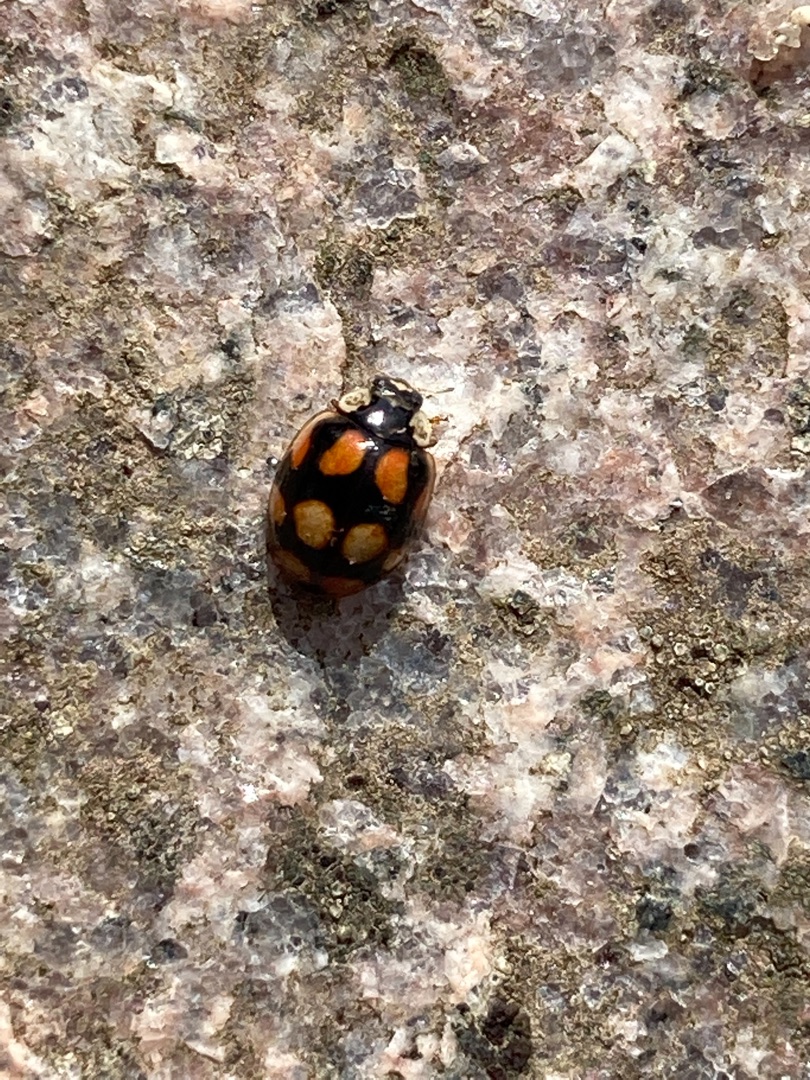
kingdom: Animalia
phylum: Arthropoda
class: Insecta
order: Coleoptera
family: Coccinellidae
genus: Adalia
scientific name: Adalia decempunctata
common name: Tiplettet mariehøne
